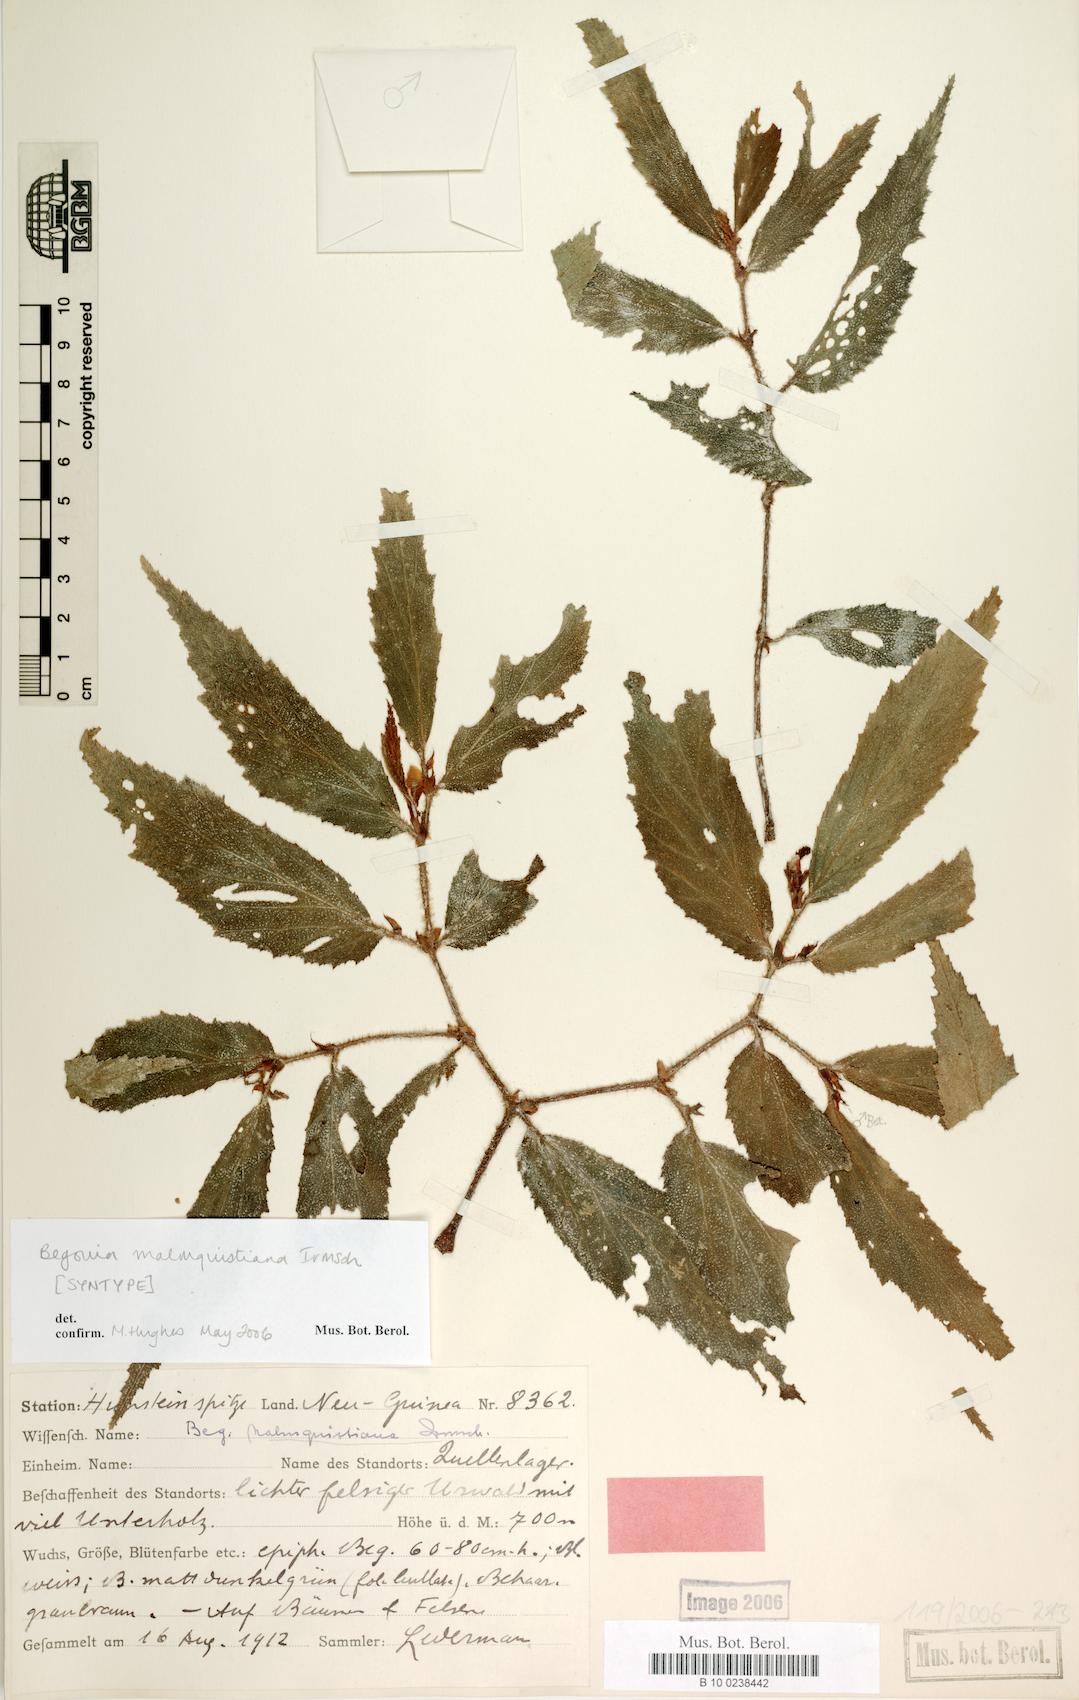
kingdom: Plantae
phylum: Tracheophyta
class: Magnoliopsida
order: Cucurbitales
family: Begoniaceae
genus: Begonia
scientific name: Begonia malmquistiana
